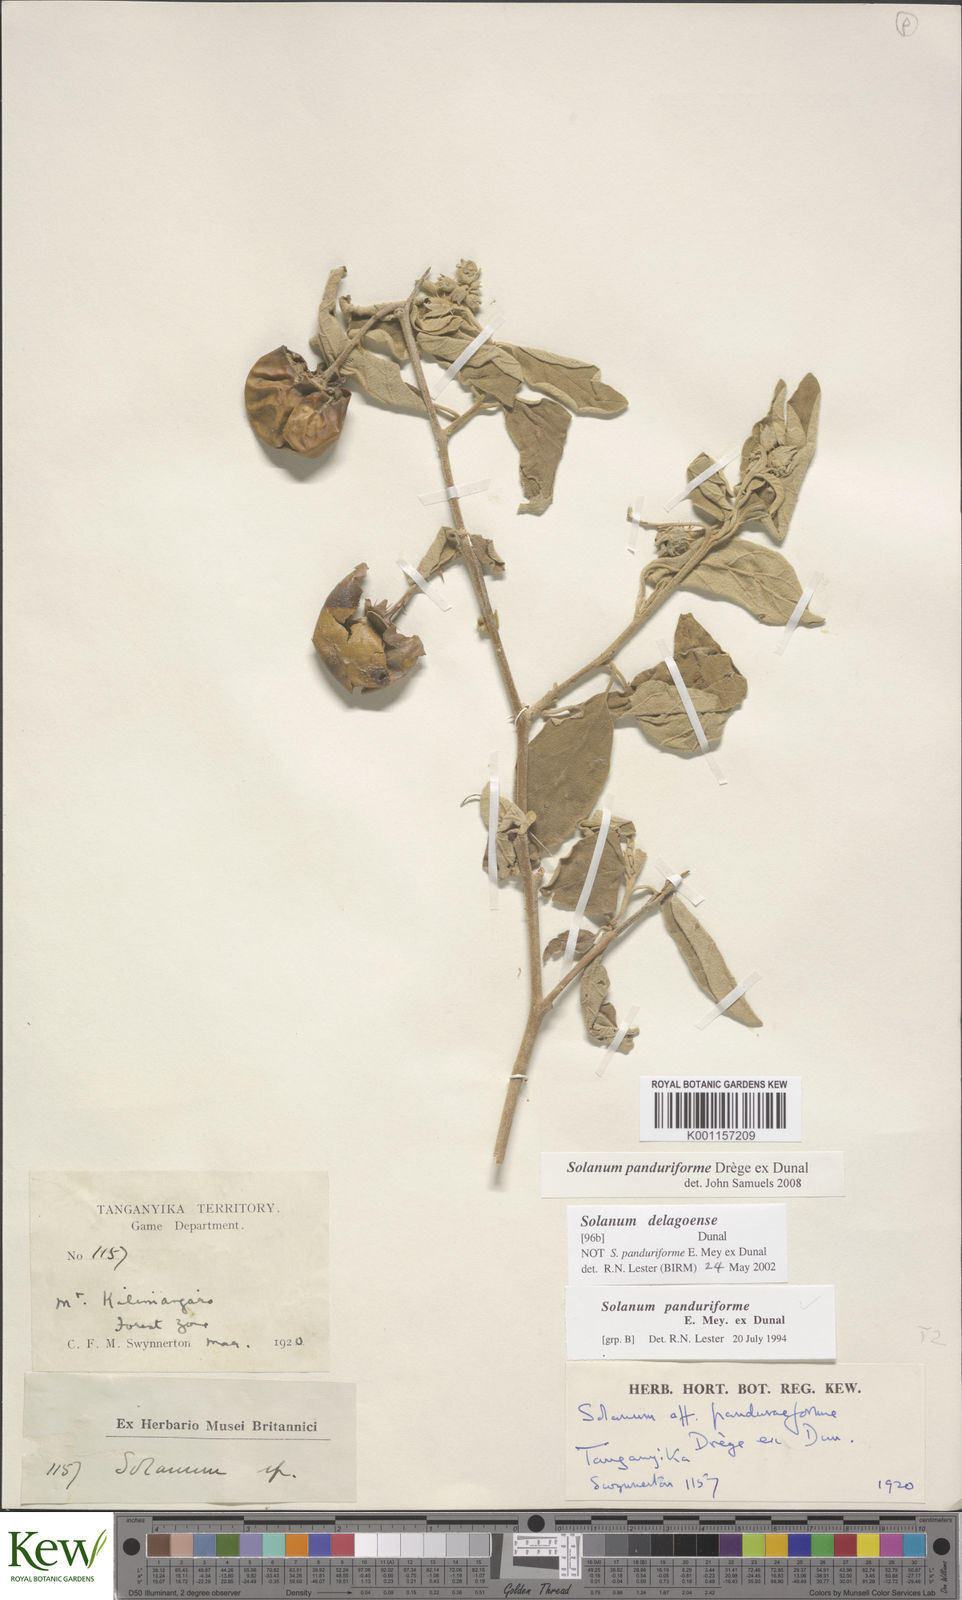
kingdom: Plantae
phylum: Tracheophyta
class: Magnoliopsida
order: Solanales
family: Solanaceae
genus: Solanum
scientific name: Solanum campylacanthum
